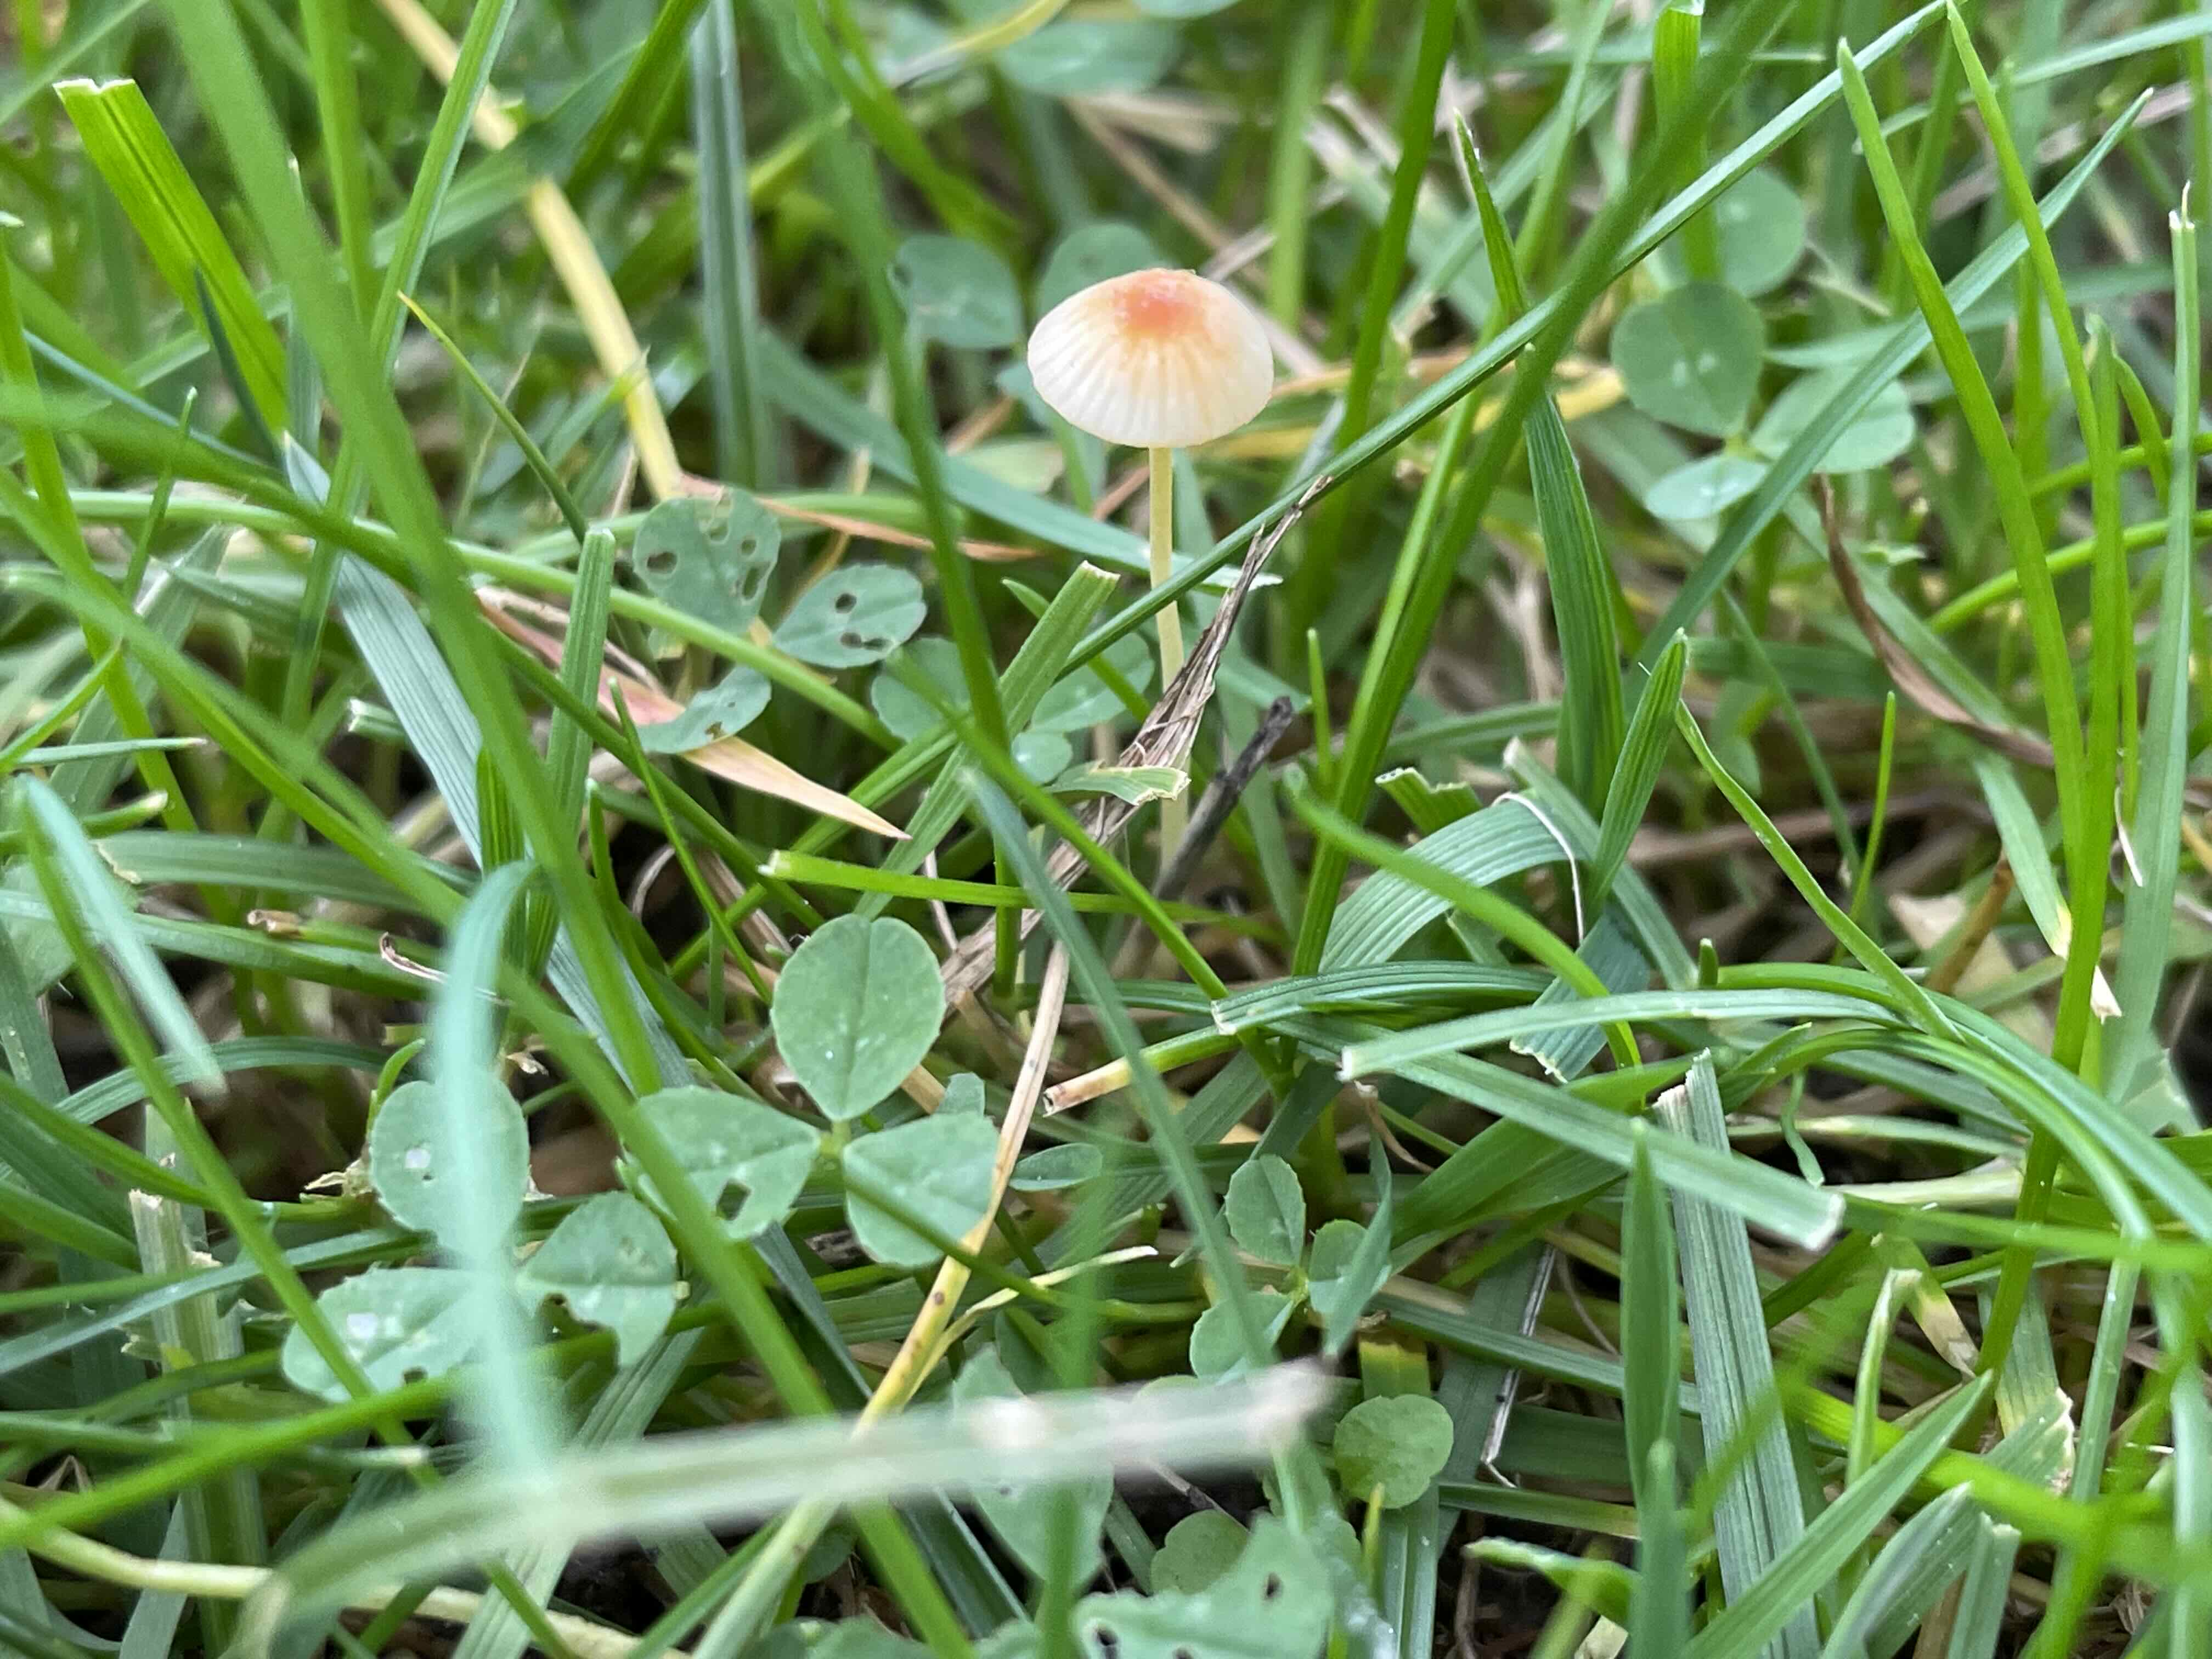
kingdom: Fungi
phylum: Basidiomycota
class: Agaricomycetes
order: Agaricales
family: Mycenaceae
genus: Mycena
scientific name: Mycena acicula
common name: orange huesvamp
